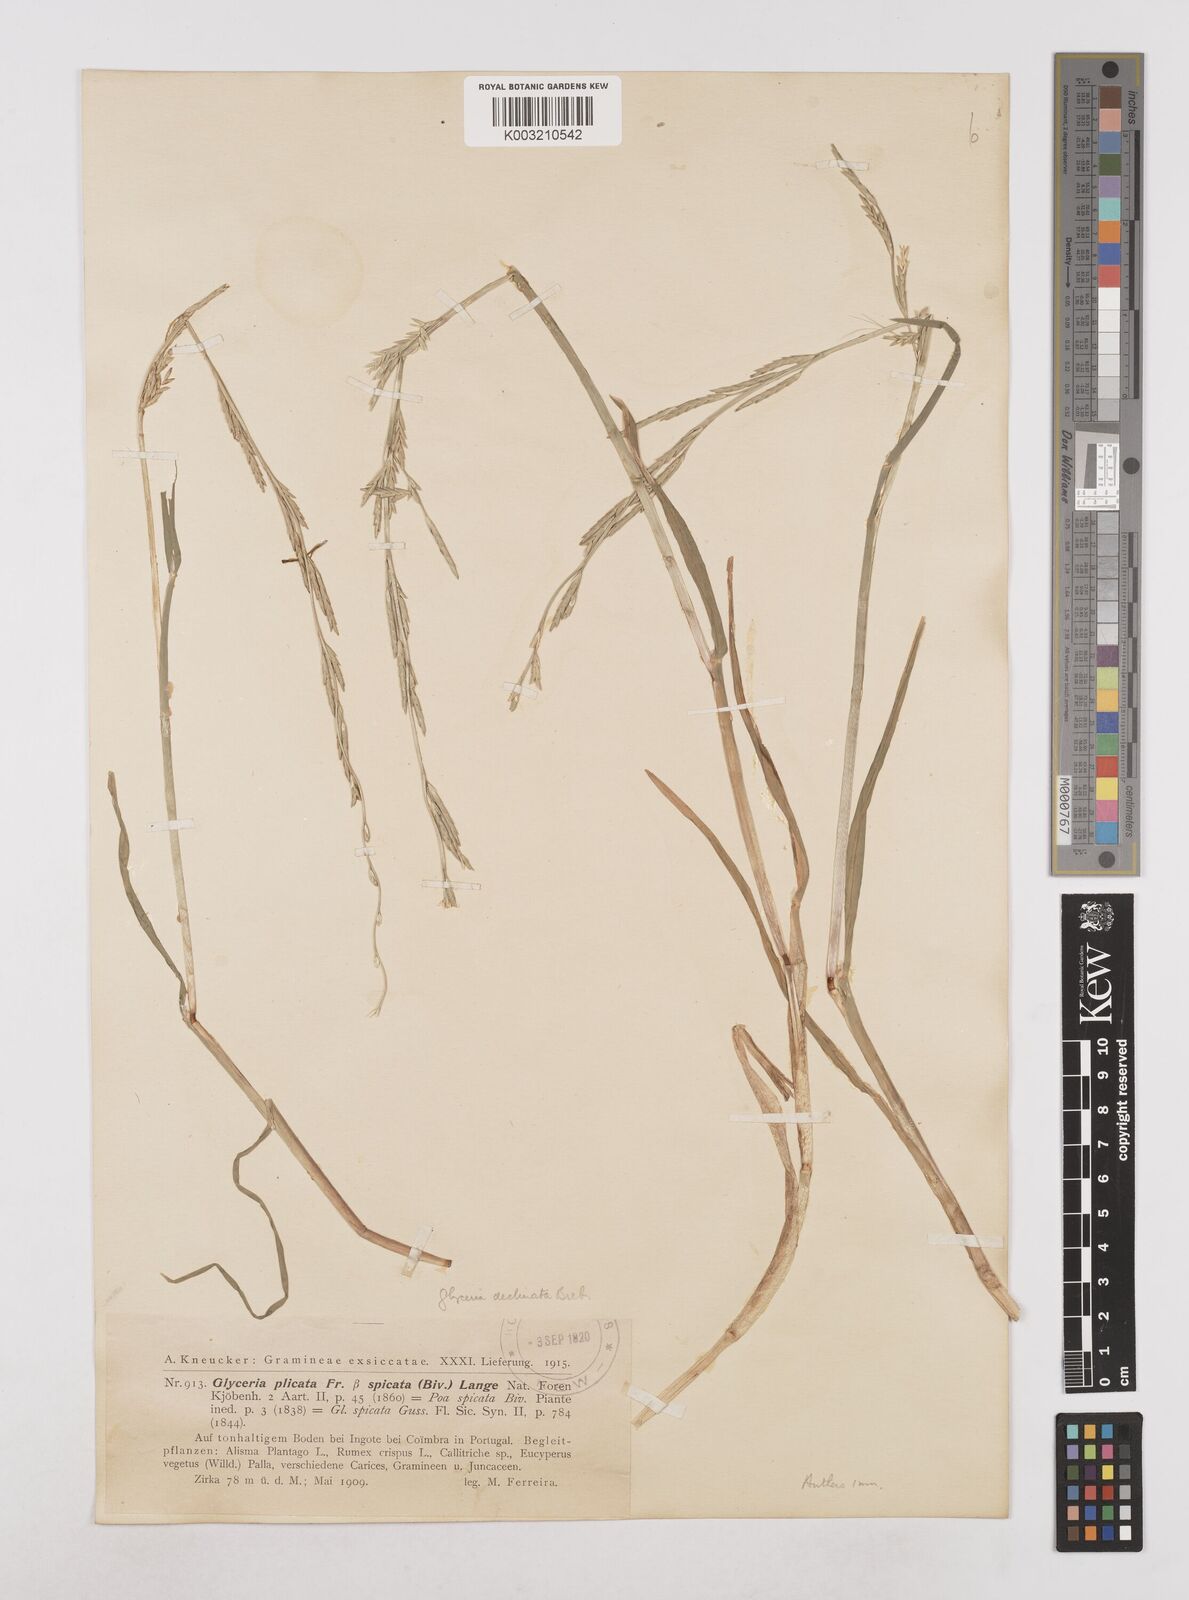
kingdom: Plantae
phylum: Tracheophyta
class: Liliopsida
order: Poales
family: Poaceae
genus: Glyceria
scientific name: Glyceria declinata
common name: Small sweet-grass
